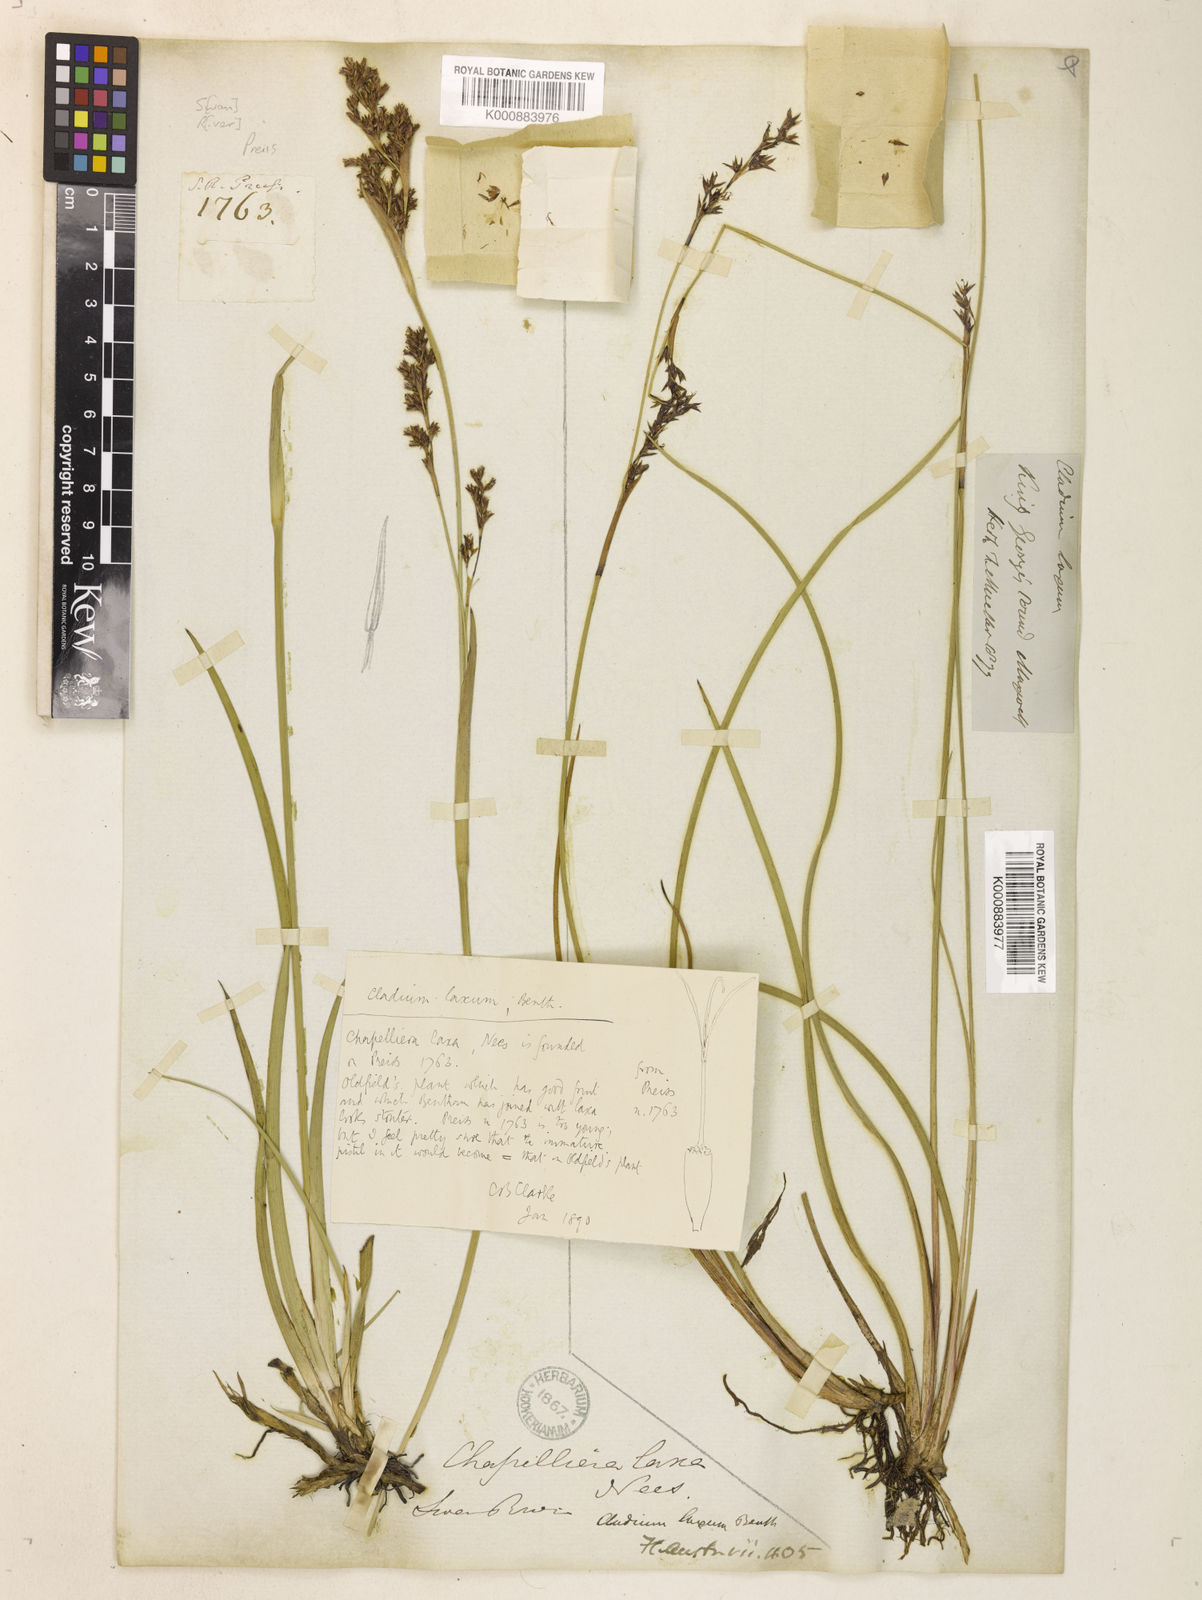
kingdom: Plantae
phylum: Tracheophyta
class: Liliopsida
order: Poales
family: Cyperaceae
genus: Machaerina
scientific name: Machaerina laxa
